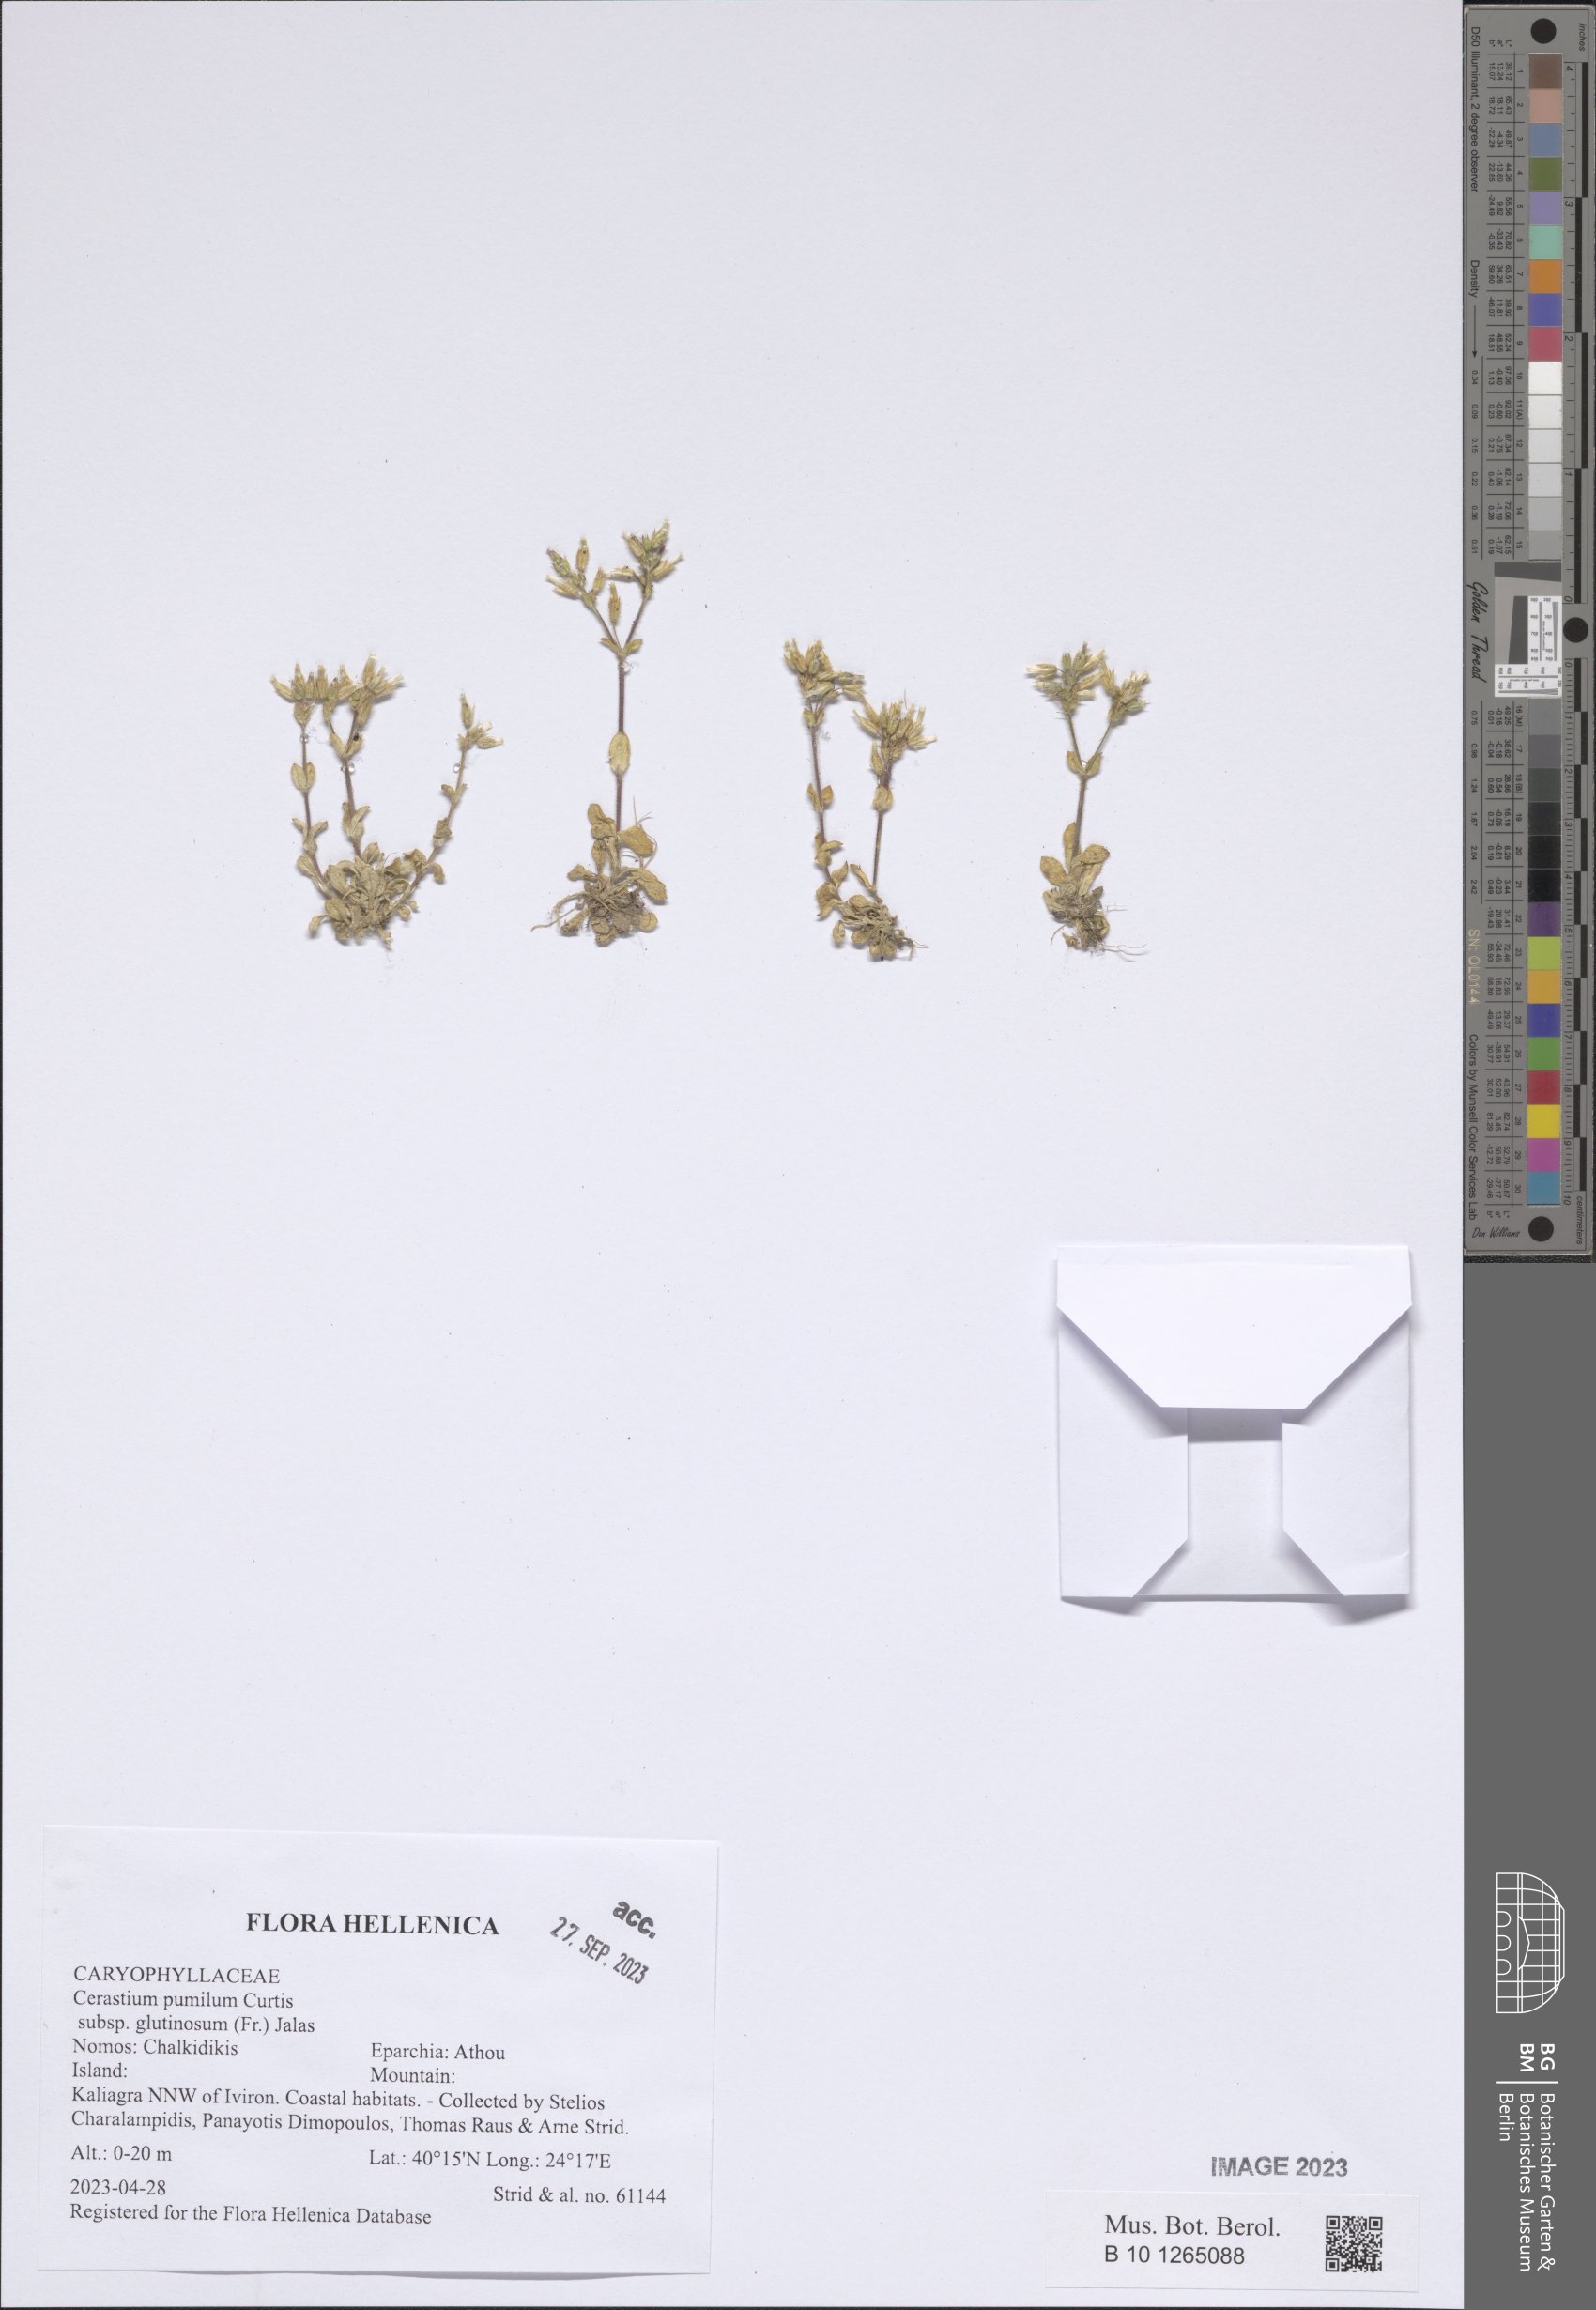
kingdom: Plantae
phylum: Tracheophyta
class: Magnoliopsida
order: Caryophyllales
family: Caryophyllaceae
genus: Cerastium
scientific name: Cerastium glutinosum
